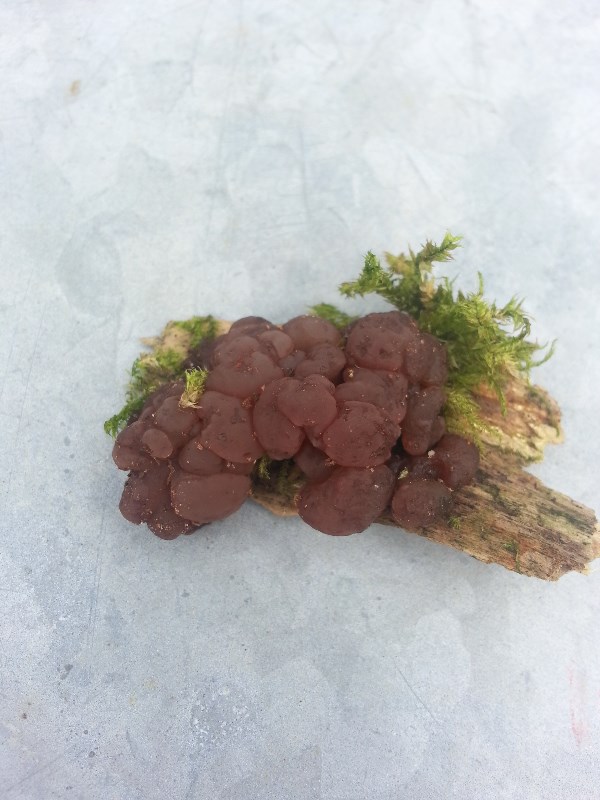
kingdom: Fungi
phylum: Ascomycota
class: Leotiomycetes
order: Helotiales
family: Gelatinodiscaceae
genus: Ascotremella
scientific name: Ascotremella faginea
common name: hjerne-bævreskive
